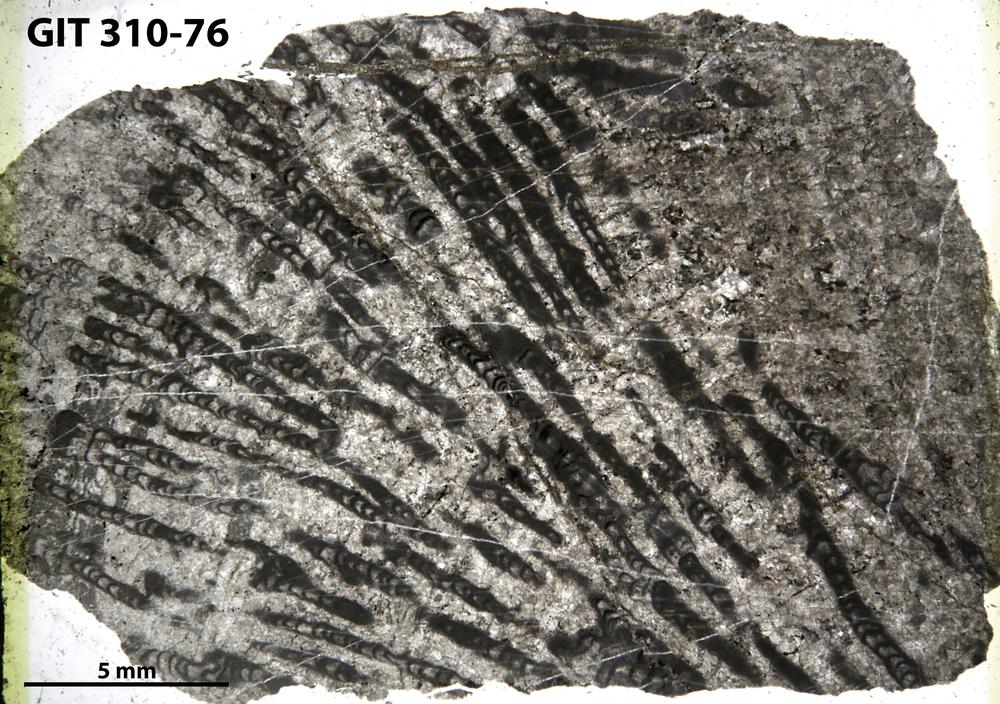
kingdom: Animalia
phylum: Porifera
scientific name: Porifera
